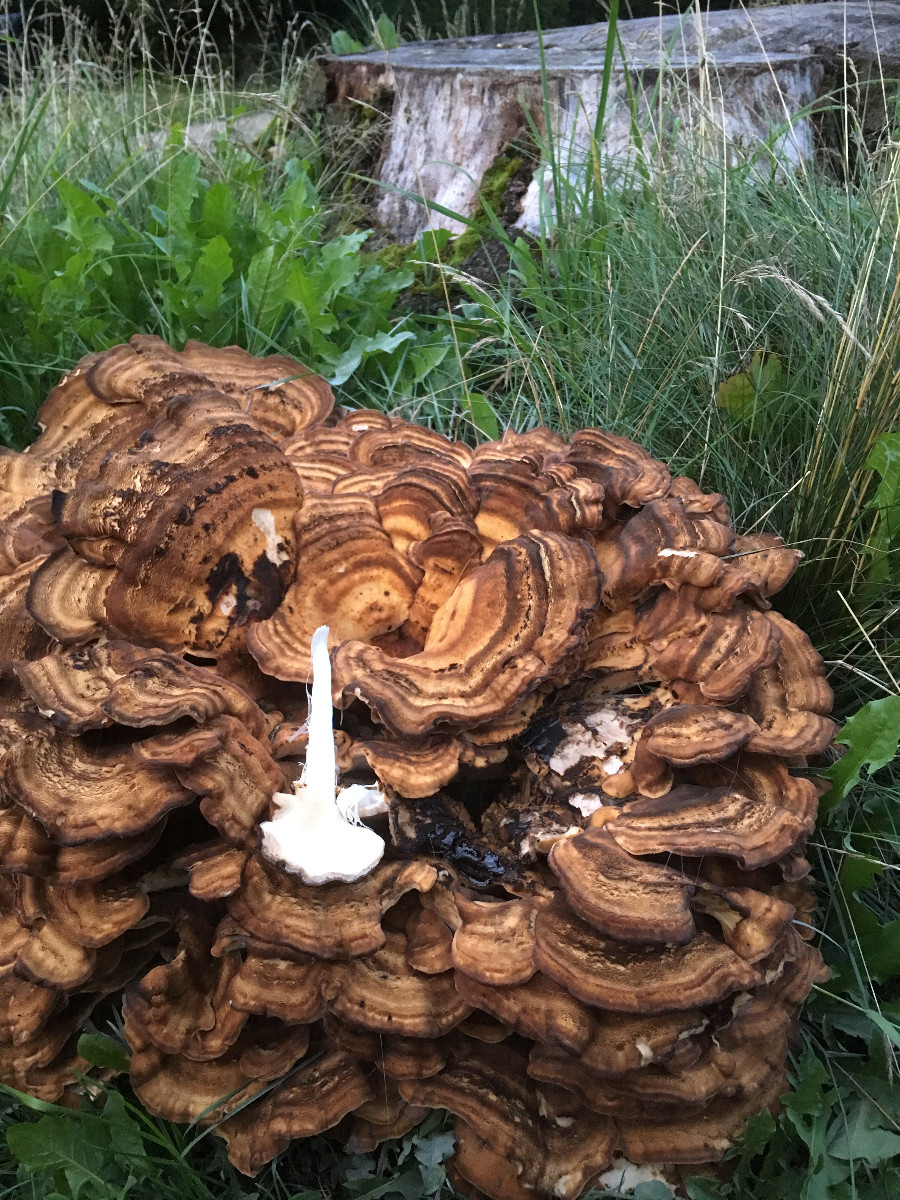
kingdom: Fungi
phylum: Basidiomycota
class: Agaricomycetes
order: Polyporales
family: Meripilaceae
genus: Meripilus
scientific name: Meripilus giganteus
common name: kæmpeporesvamp
